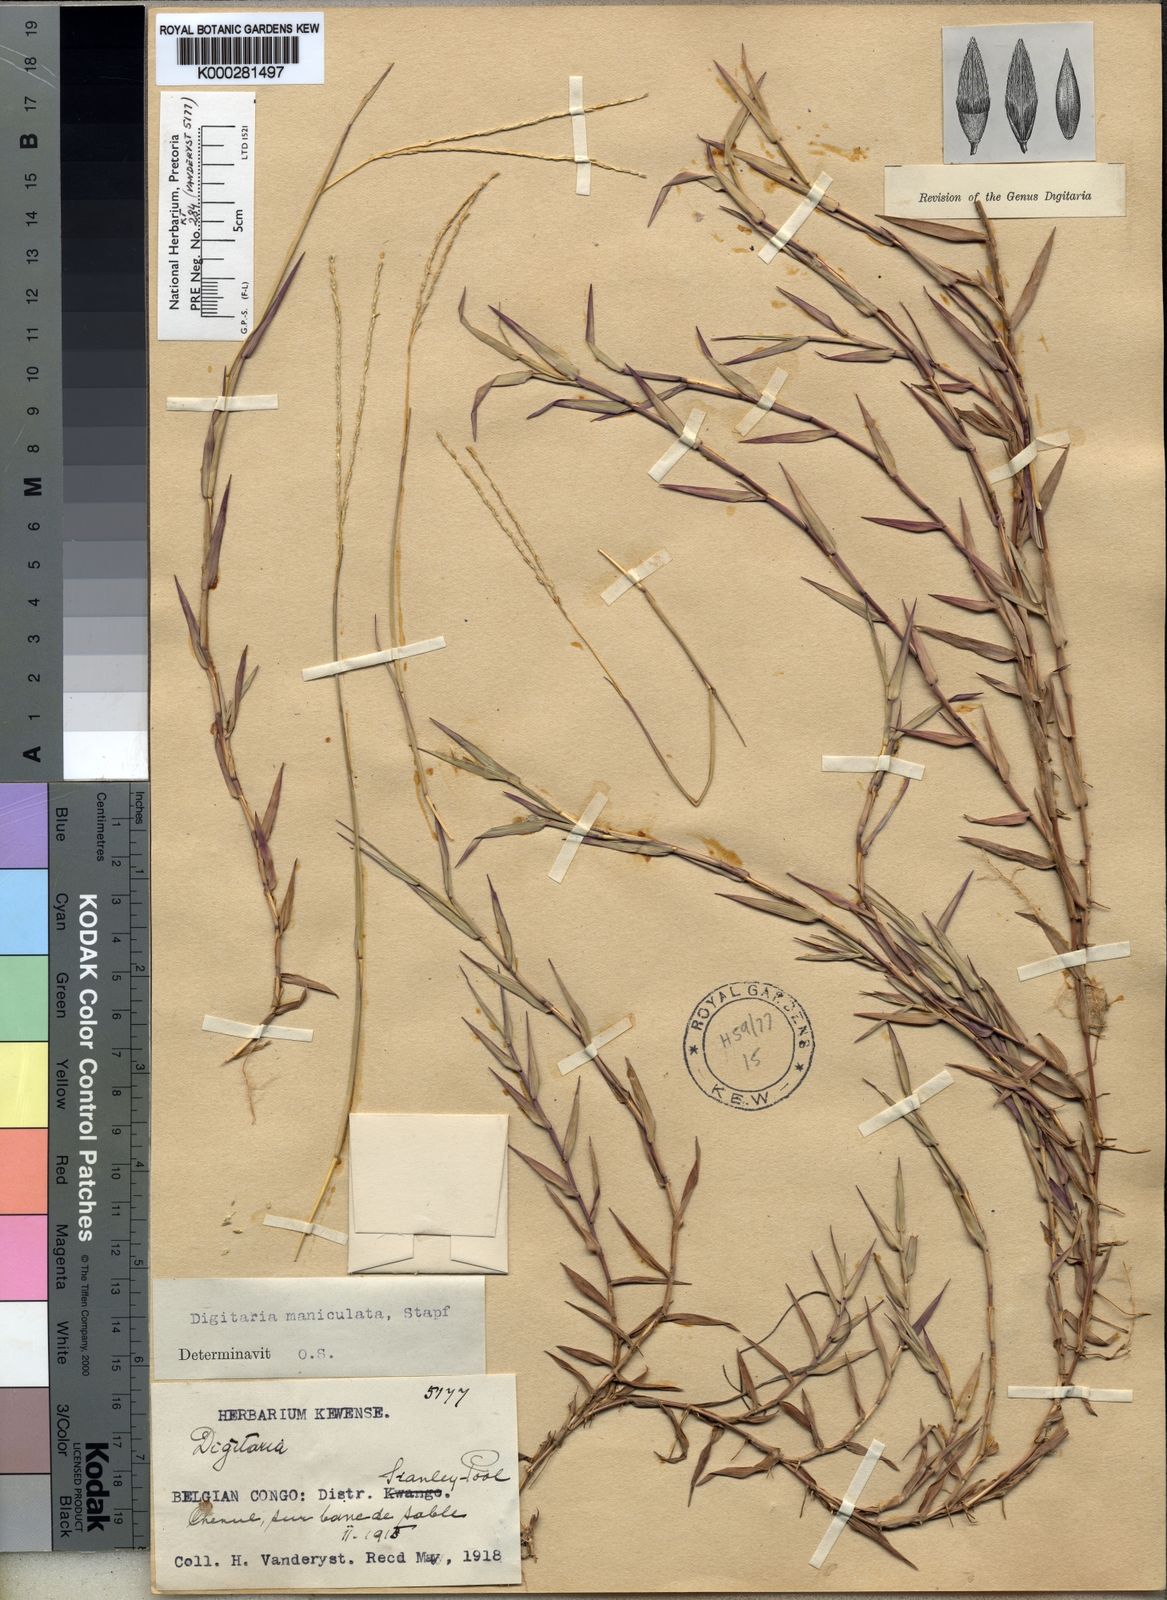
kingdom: Plantae
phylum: Tracheophyta
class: Liliopsida
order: Poales
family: Poaceae
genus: Digitaria
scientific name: Digitaria maniculata
